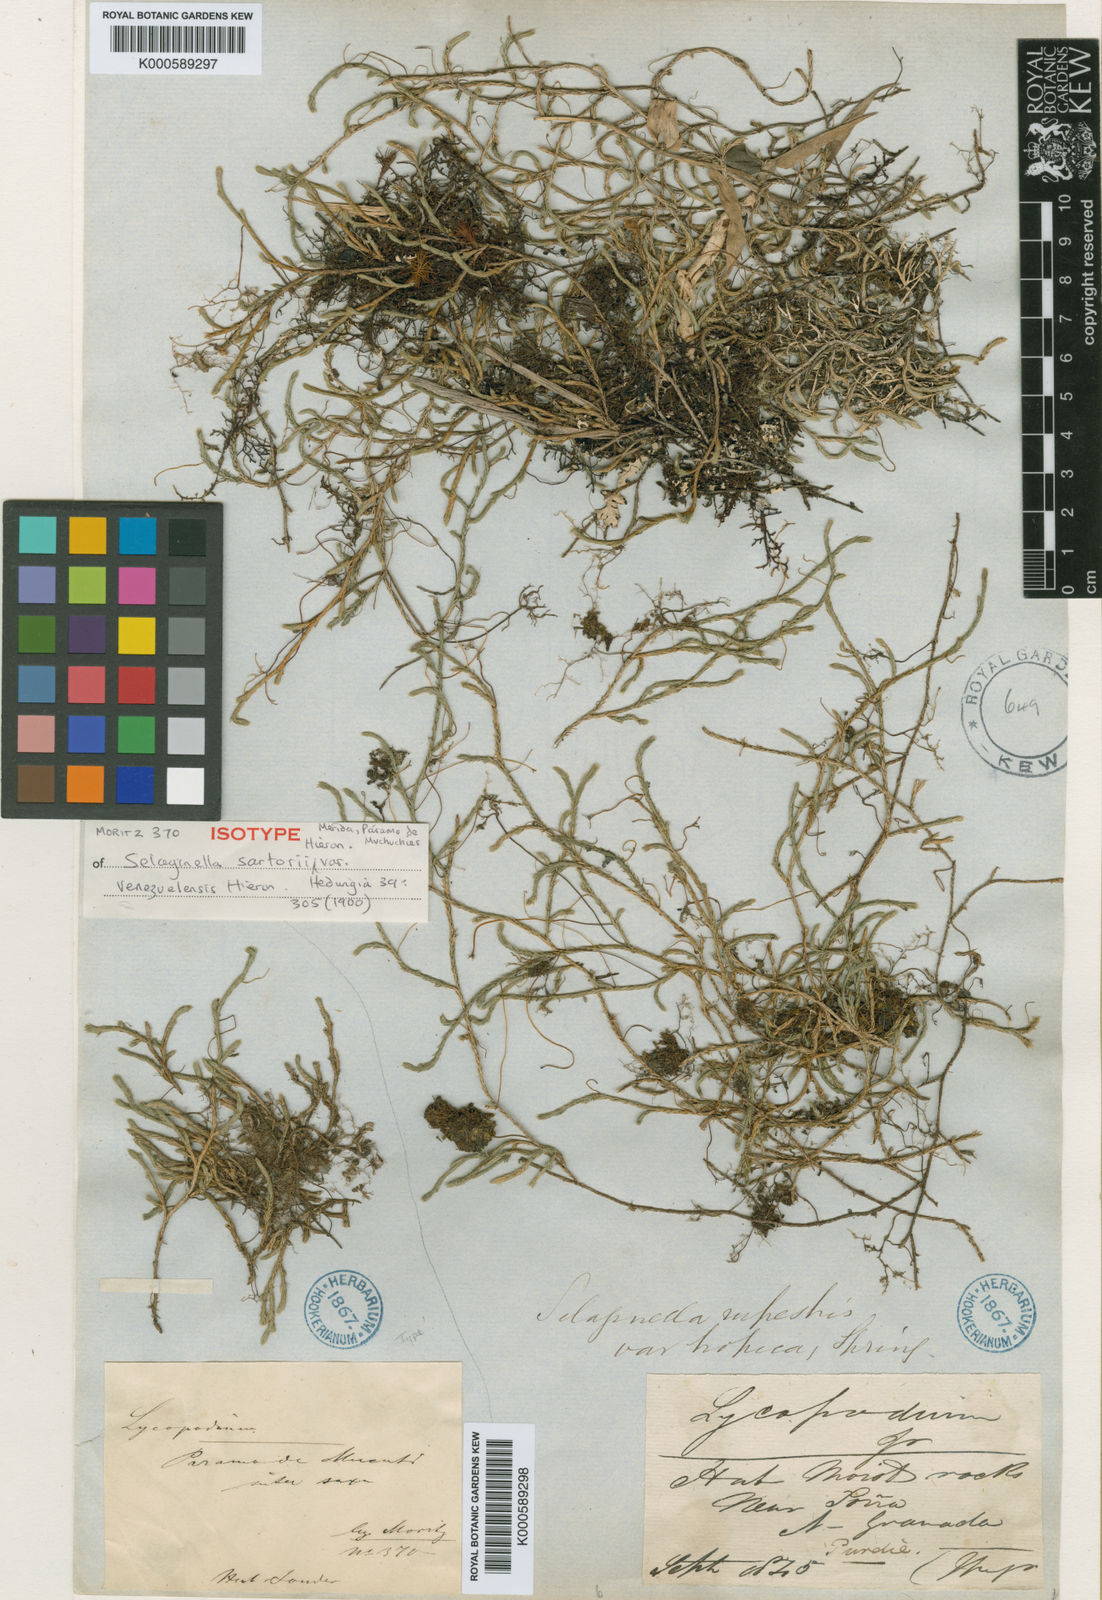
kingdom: Plantae
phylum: Tracheophyta
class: Lycopodiopsida
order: Selaginellales
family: Selaginellaceae
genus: Selaginella
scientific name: Selaginella sartorii
